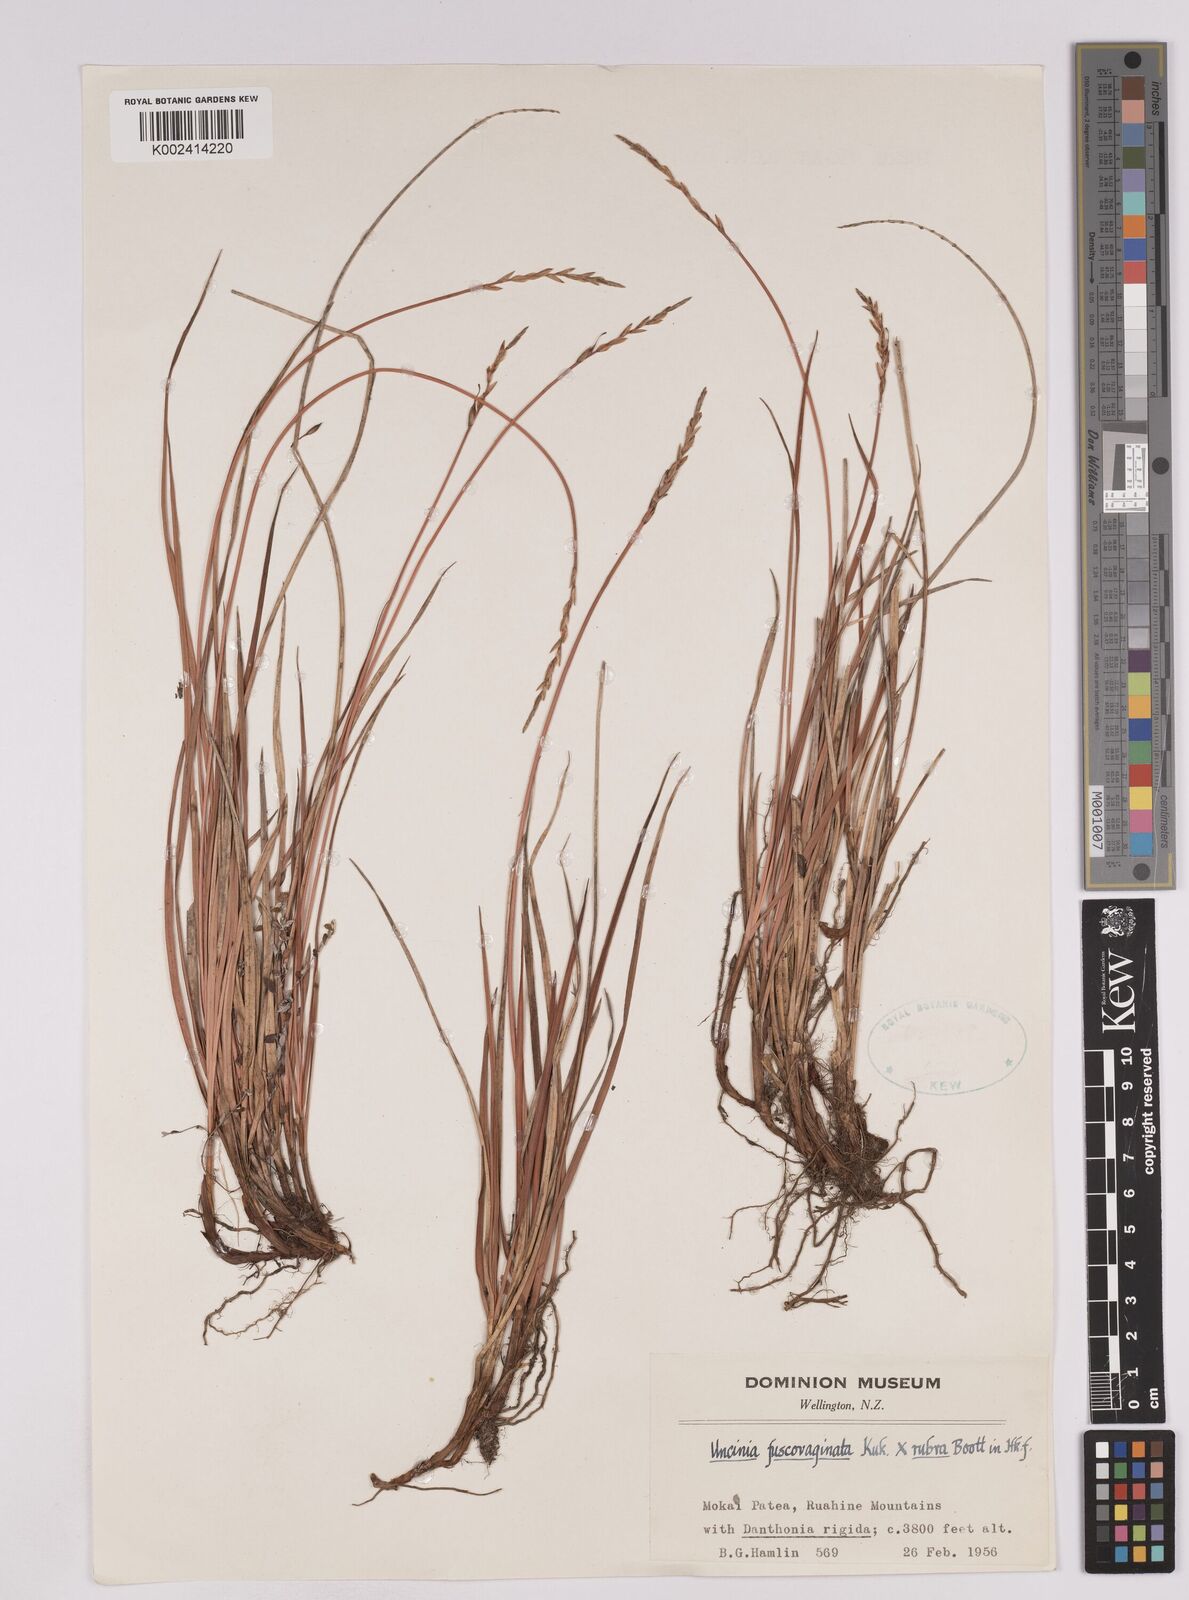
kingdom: Plantae
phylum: Tracheophyta
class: Liliopsida
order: Poales
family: Cyperaceae
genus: Carex
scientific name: Carex penalpina
